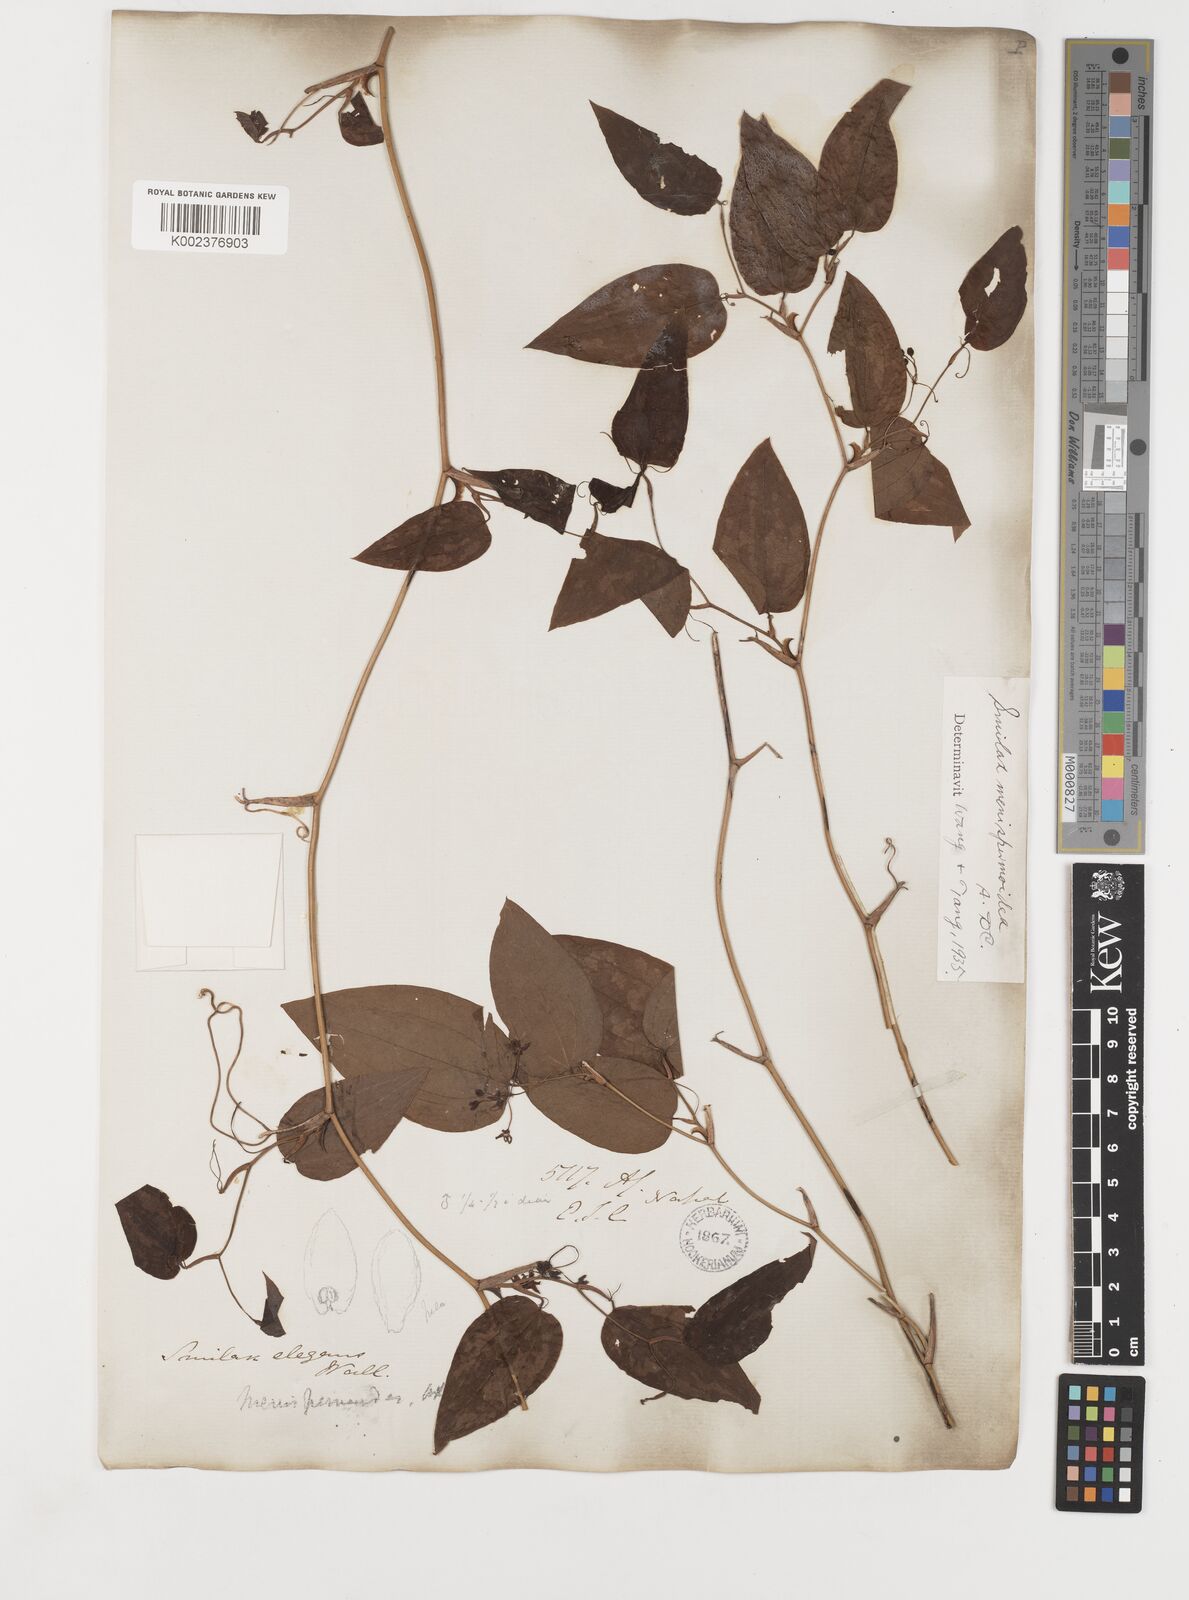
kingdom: Plantae
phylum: Tracheophyta
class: Liliopsida
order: Liliales
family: Smilacaceae
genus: Smilax
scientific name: Smilax menispermoidea
